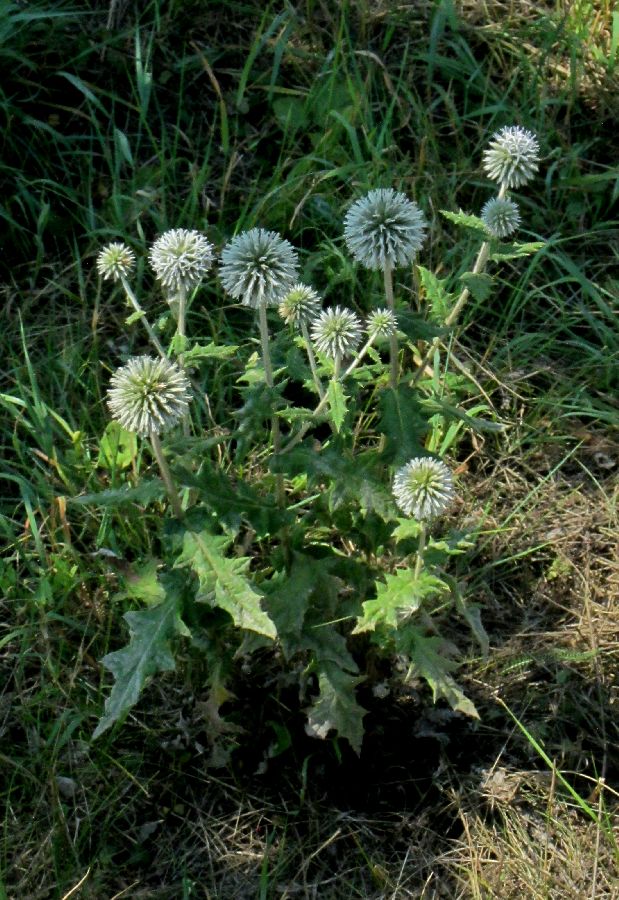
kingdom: Plantae
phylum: Tracheophyta
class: Magnoliopsida
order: Asterales
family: Asteraceae
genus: Echinops
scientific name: Echinops sphaerocephalus
